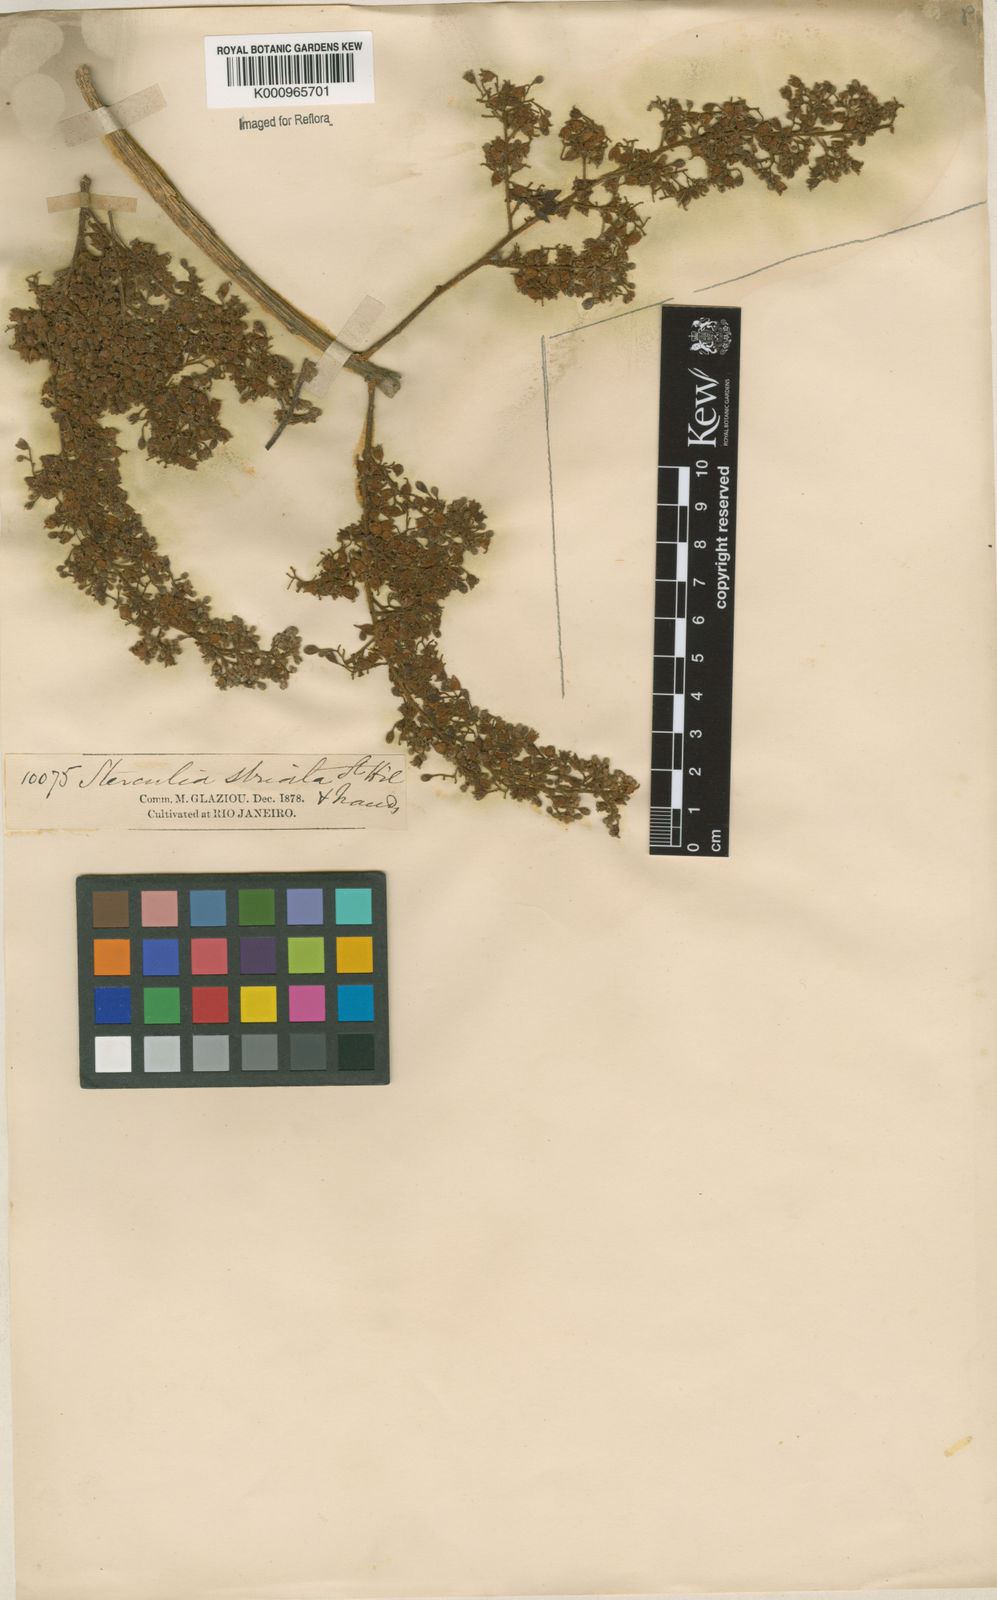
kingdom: Plantae
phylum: Tracheophyta
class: Magnoliopsida
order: Malvales
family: Malvaceae
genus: Sterculia
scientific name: Sterculia striata
